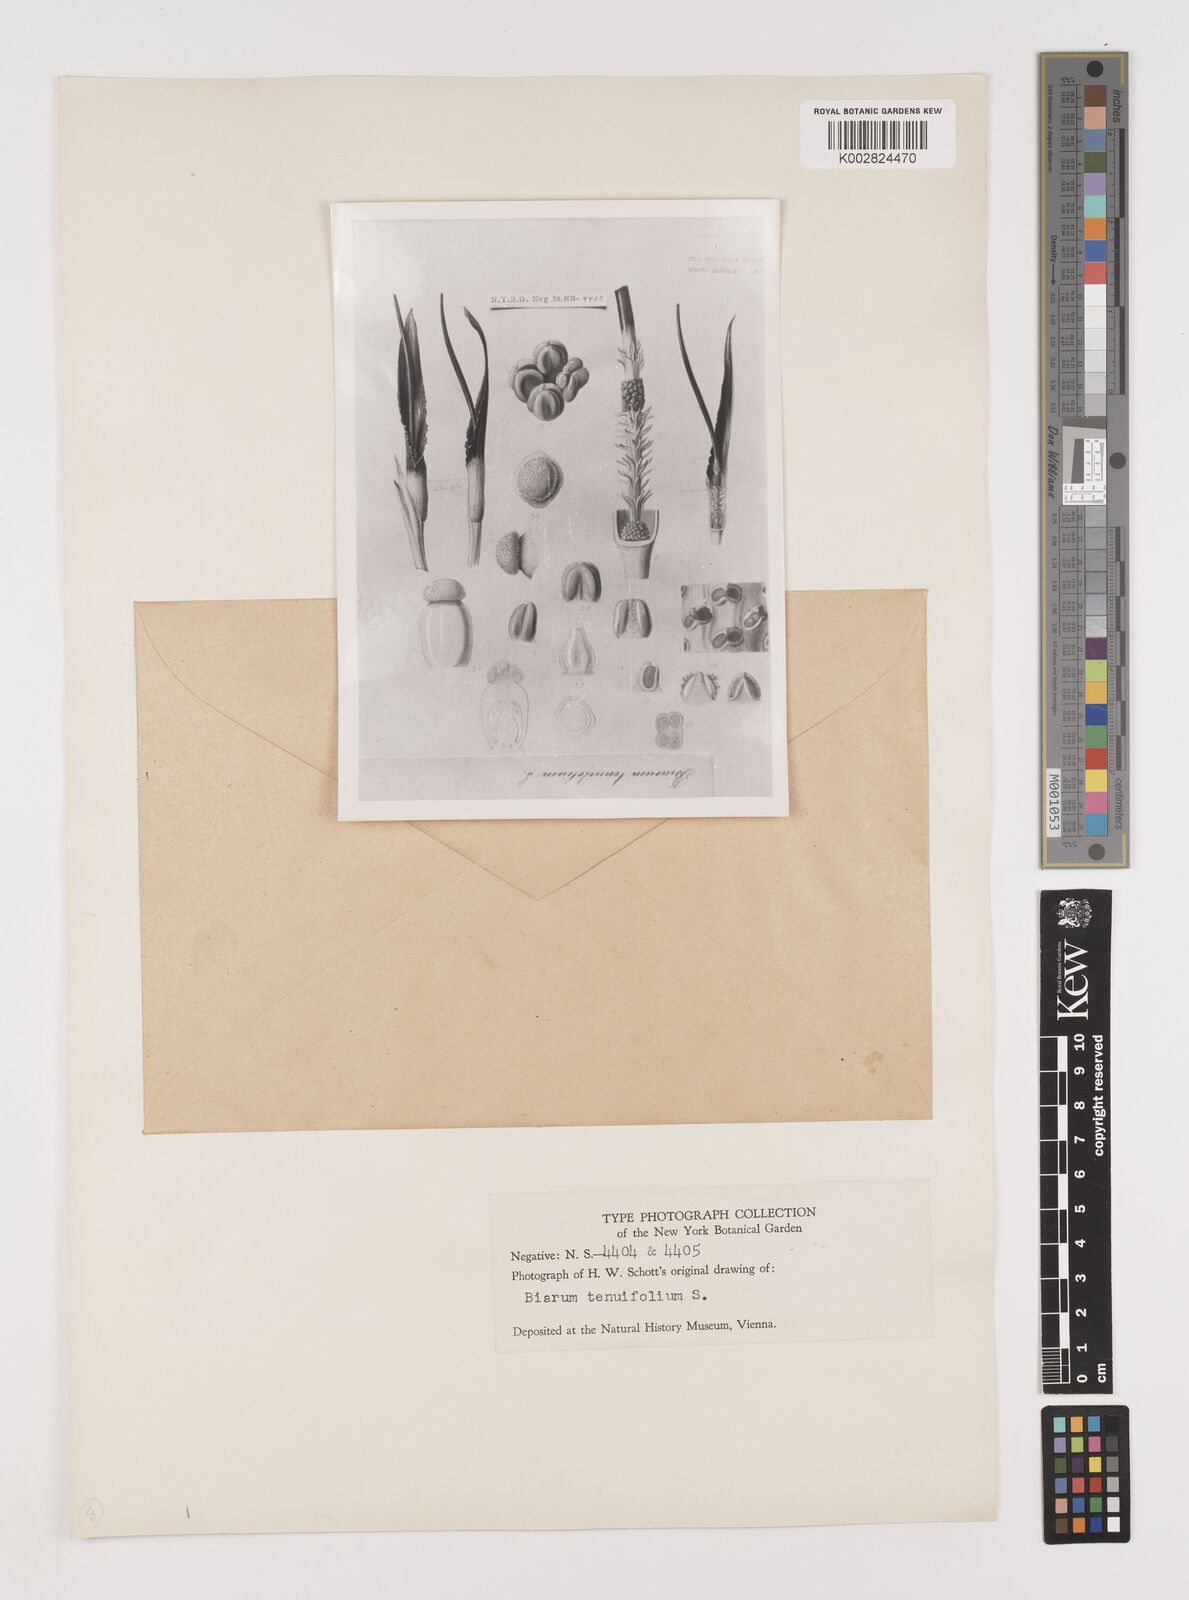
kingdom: Plantae
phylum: Tracheophyta
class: Liliopsida
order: Alismatales
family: Araceae
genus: Biarum
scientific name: Biarum tenuifolium
